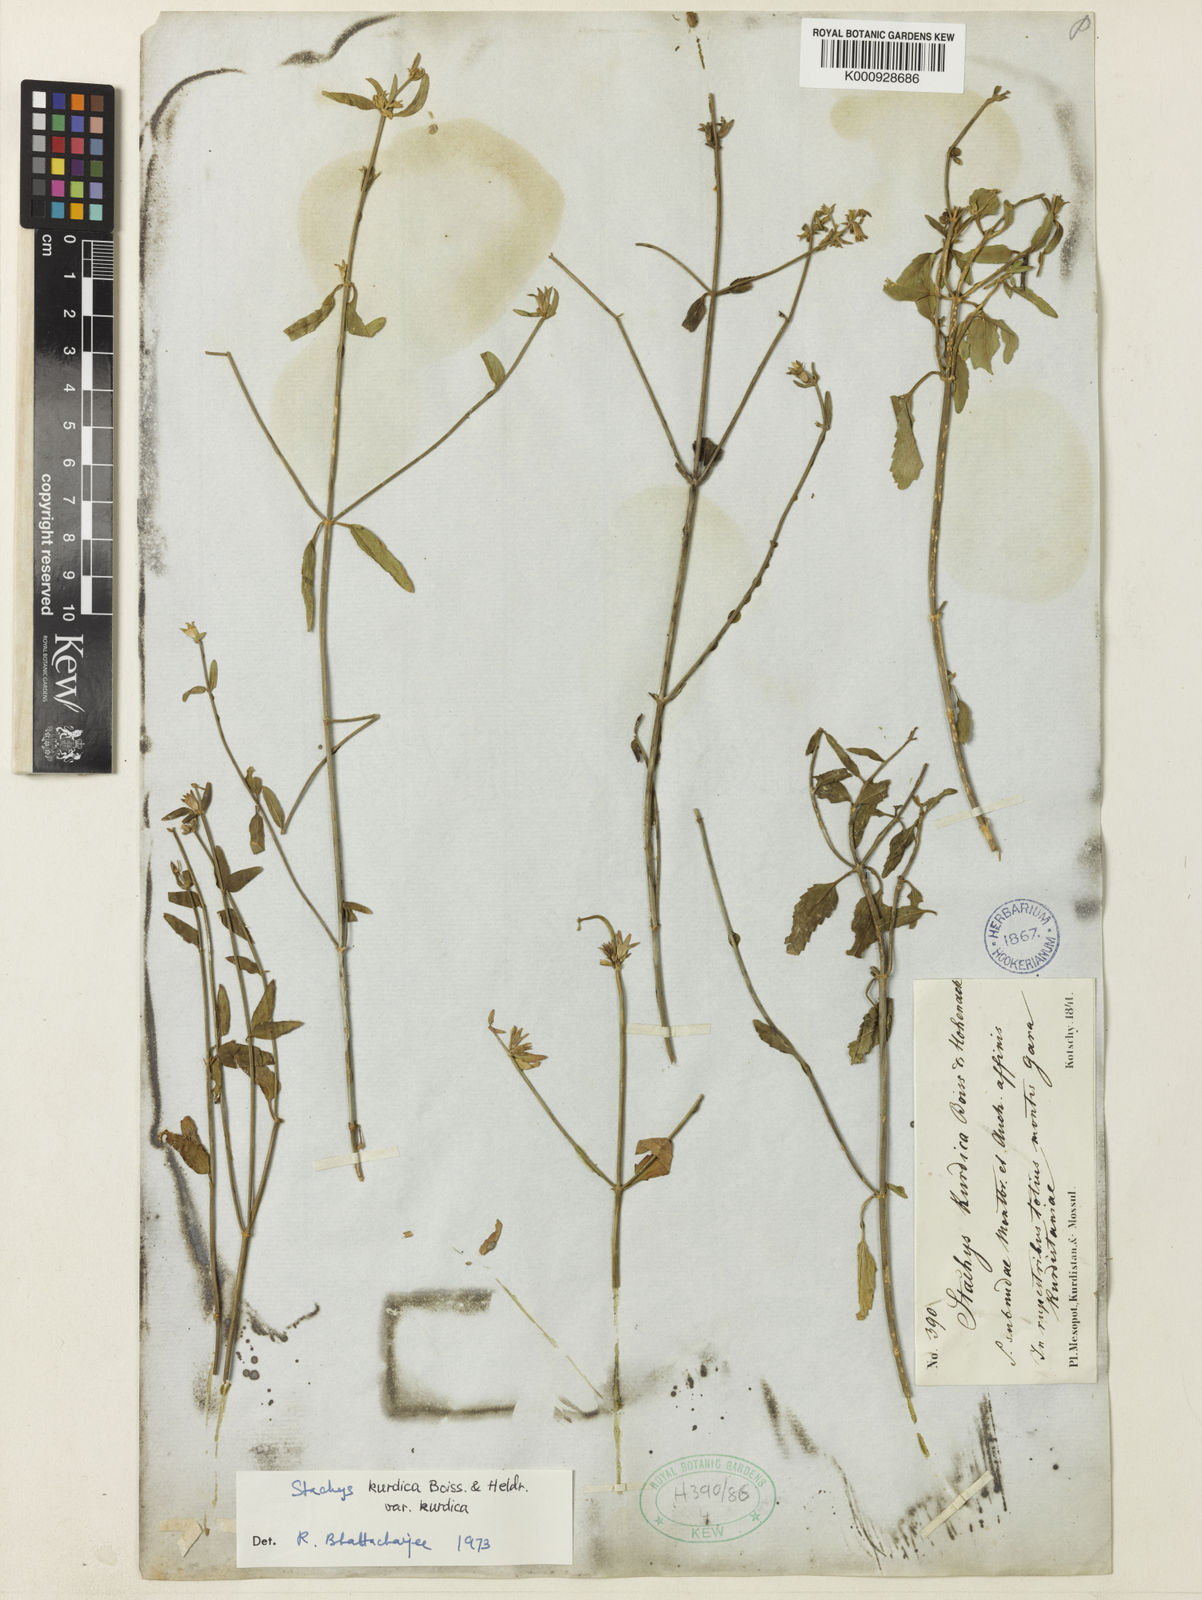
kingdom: Plantae
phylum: Tracheophyta
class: Magnoliopsida
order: Lamiales
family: Lamiaceae
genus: Stachys
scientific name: Stachys kurdica
